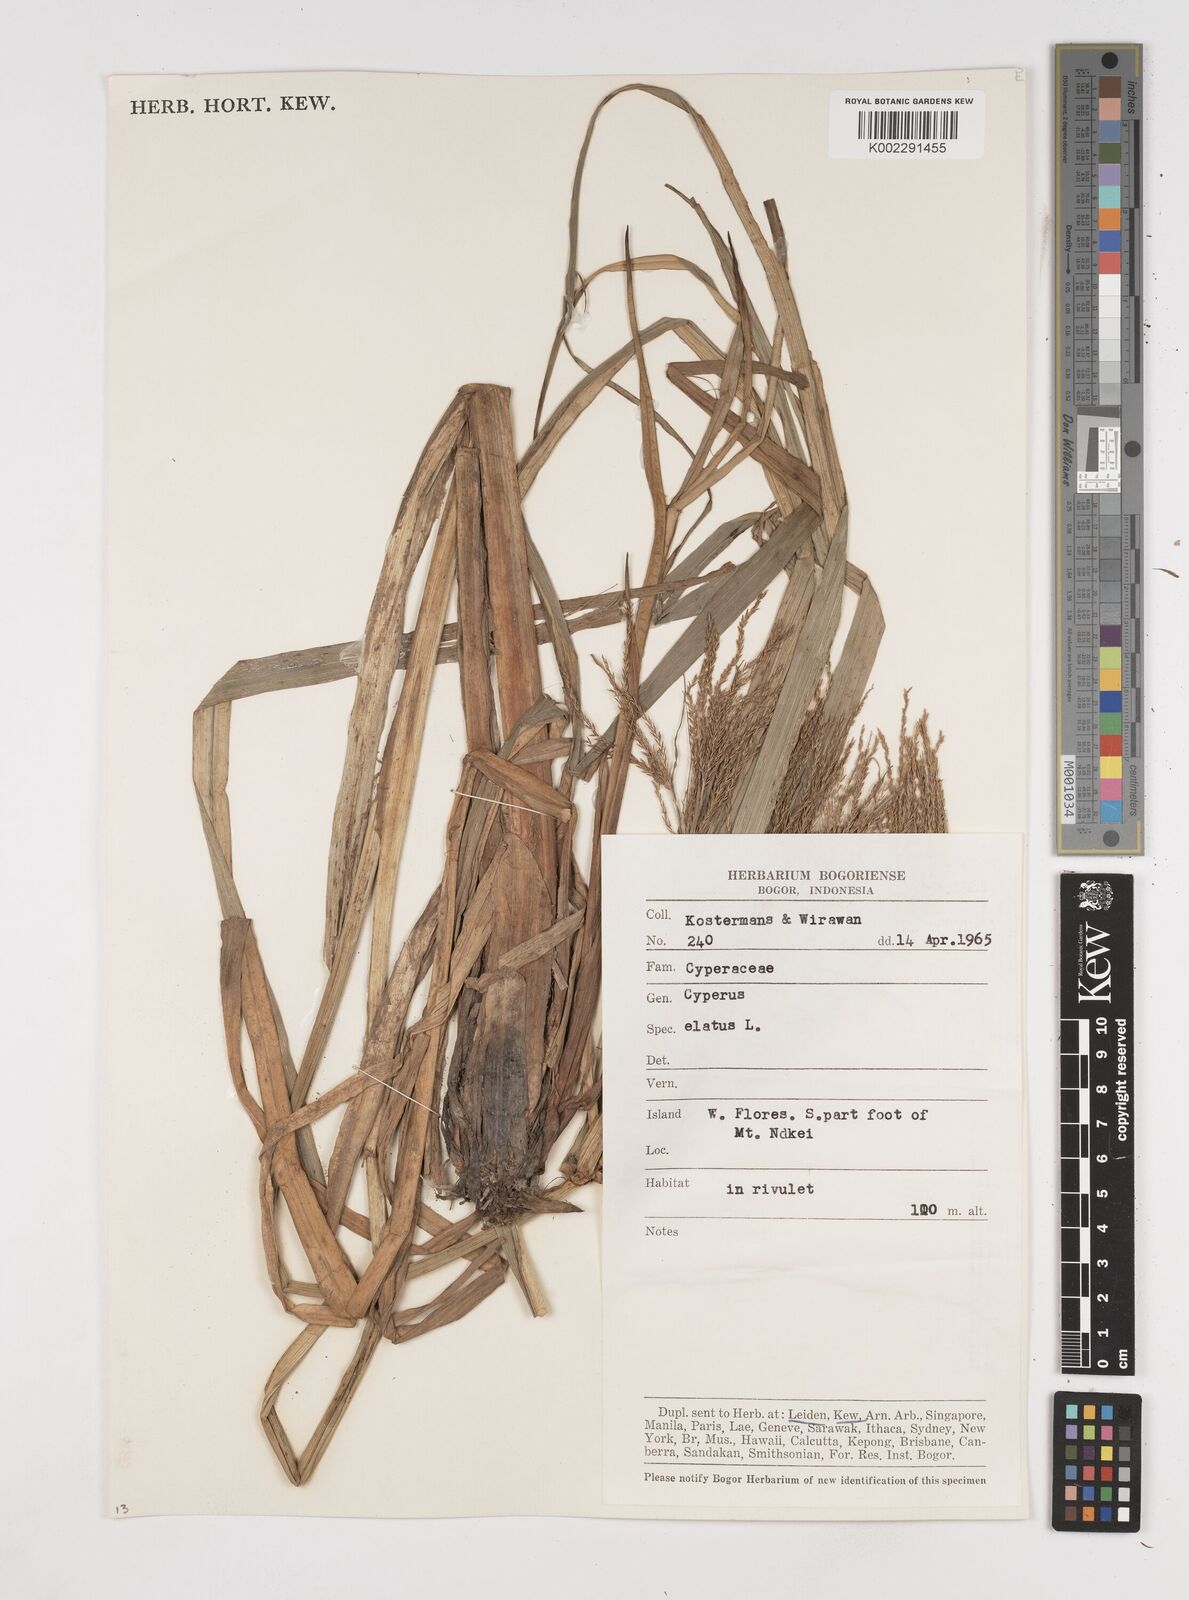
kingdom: Plantae
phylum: Tracheophyta
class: Liliopsida
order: Poales
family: Cyperaceae
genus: Cyperus
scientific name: Cyperus elatus
